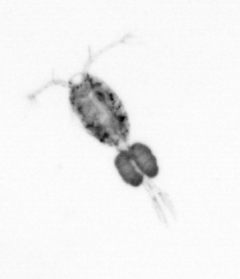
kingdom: Animalia
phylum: Arthropoda
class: Copepoda
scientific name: Copepoda
